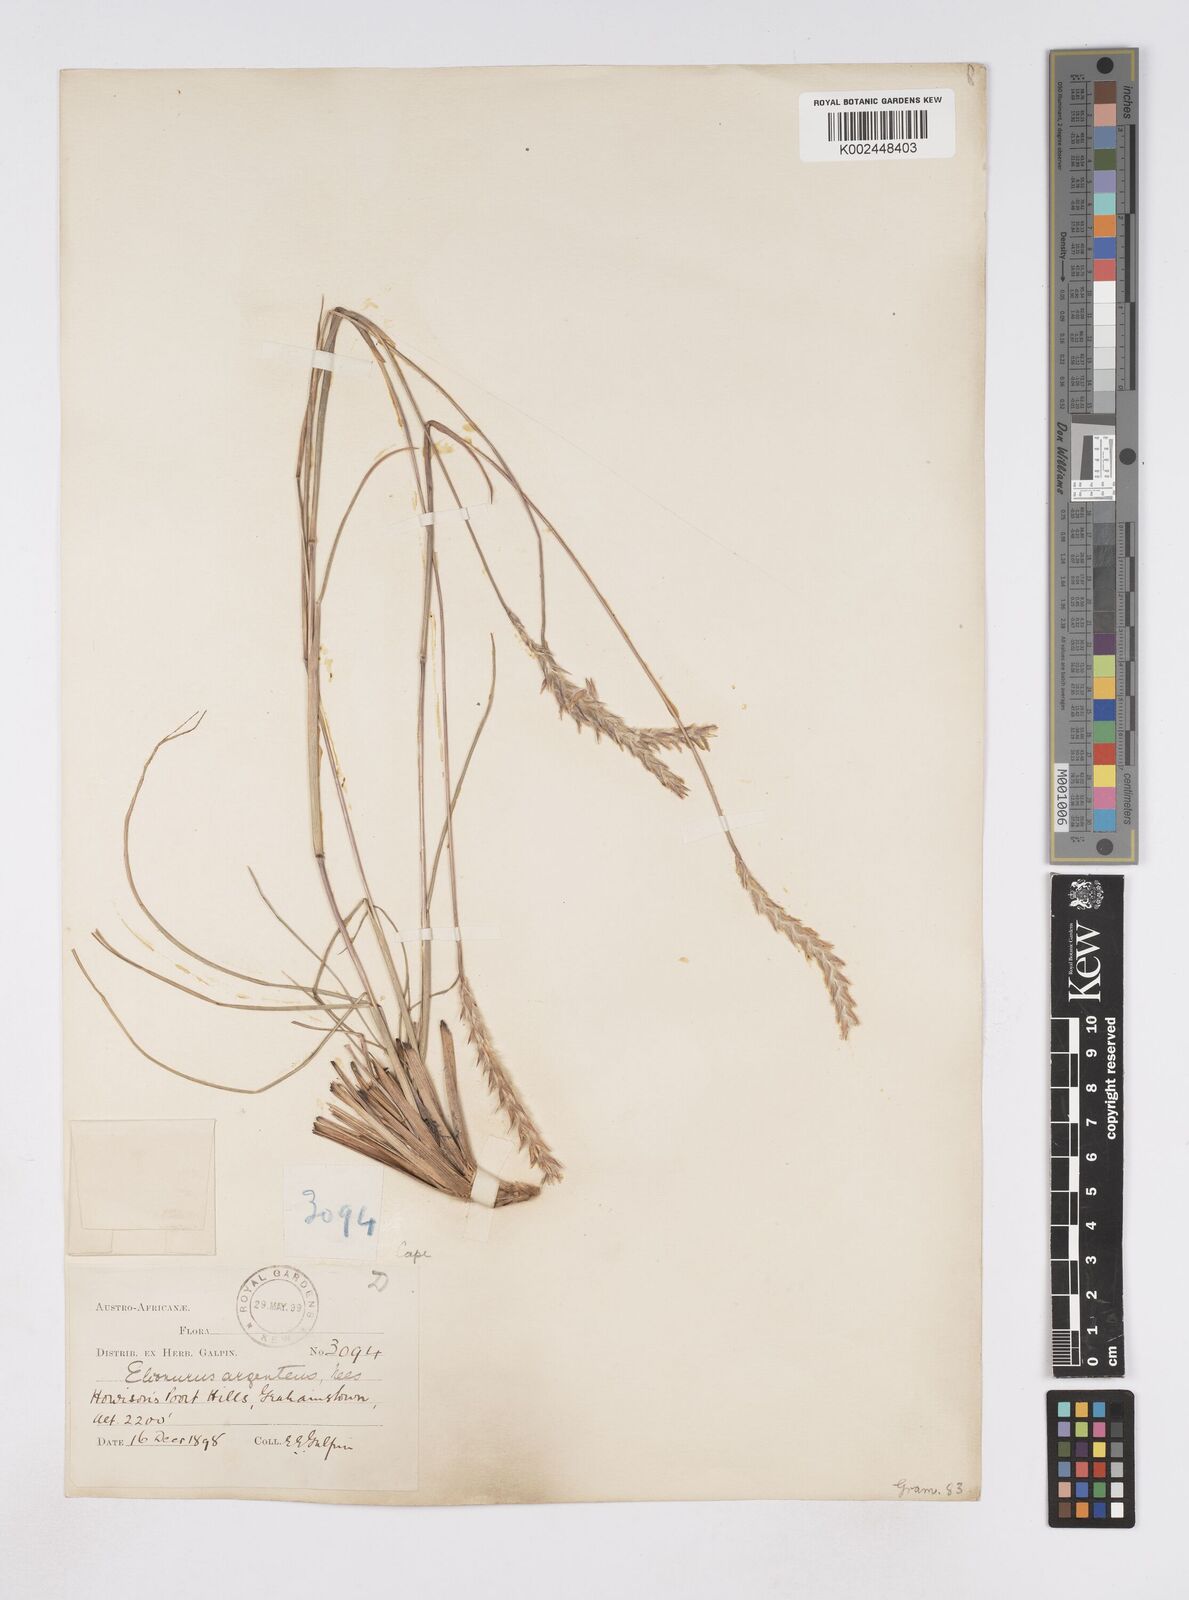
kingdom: Plantae
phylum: Tracheophyta
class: Liliopsida
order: Poales
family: Poaceae
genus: Elionurus
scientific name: Elionurus muticus
